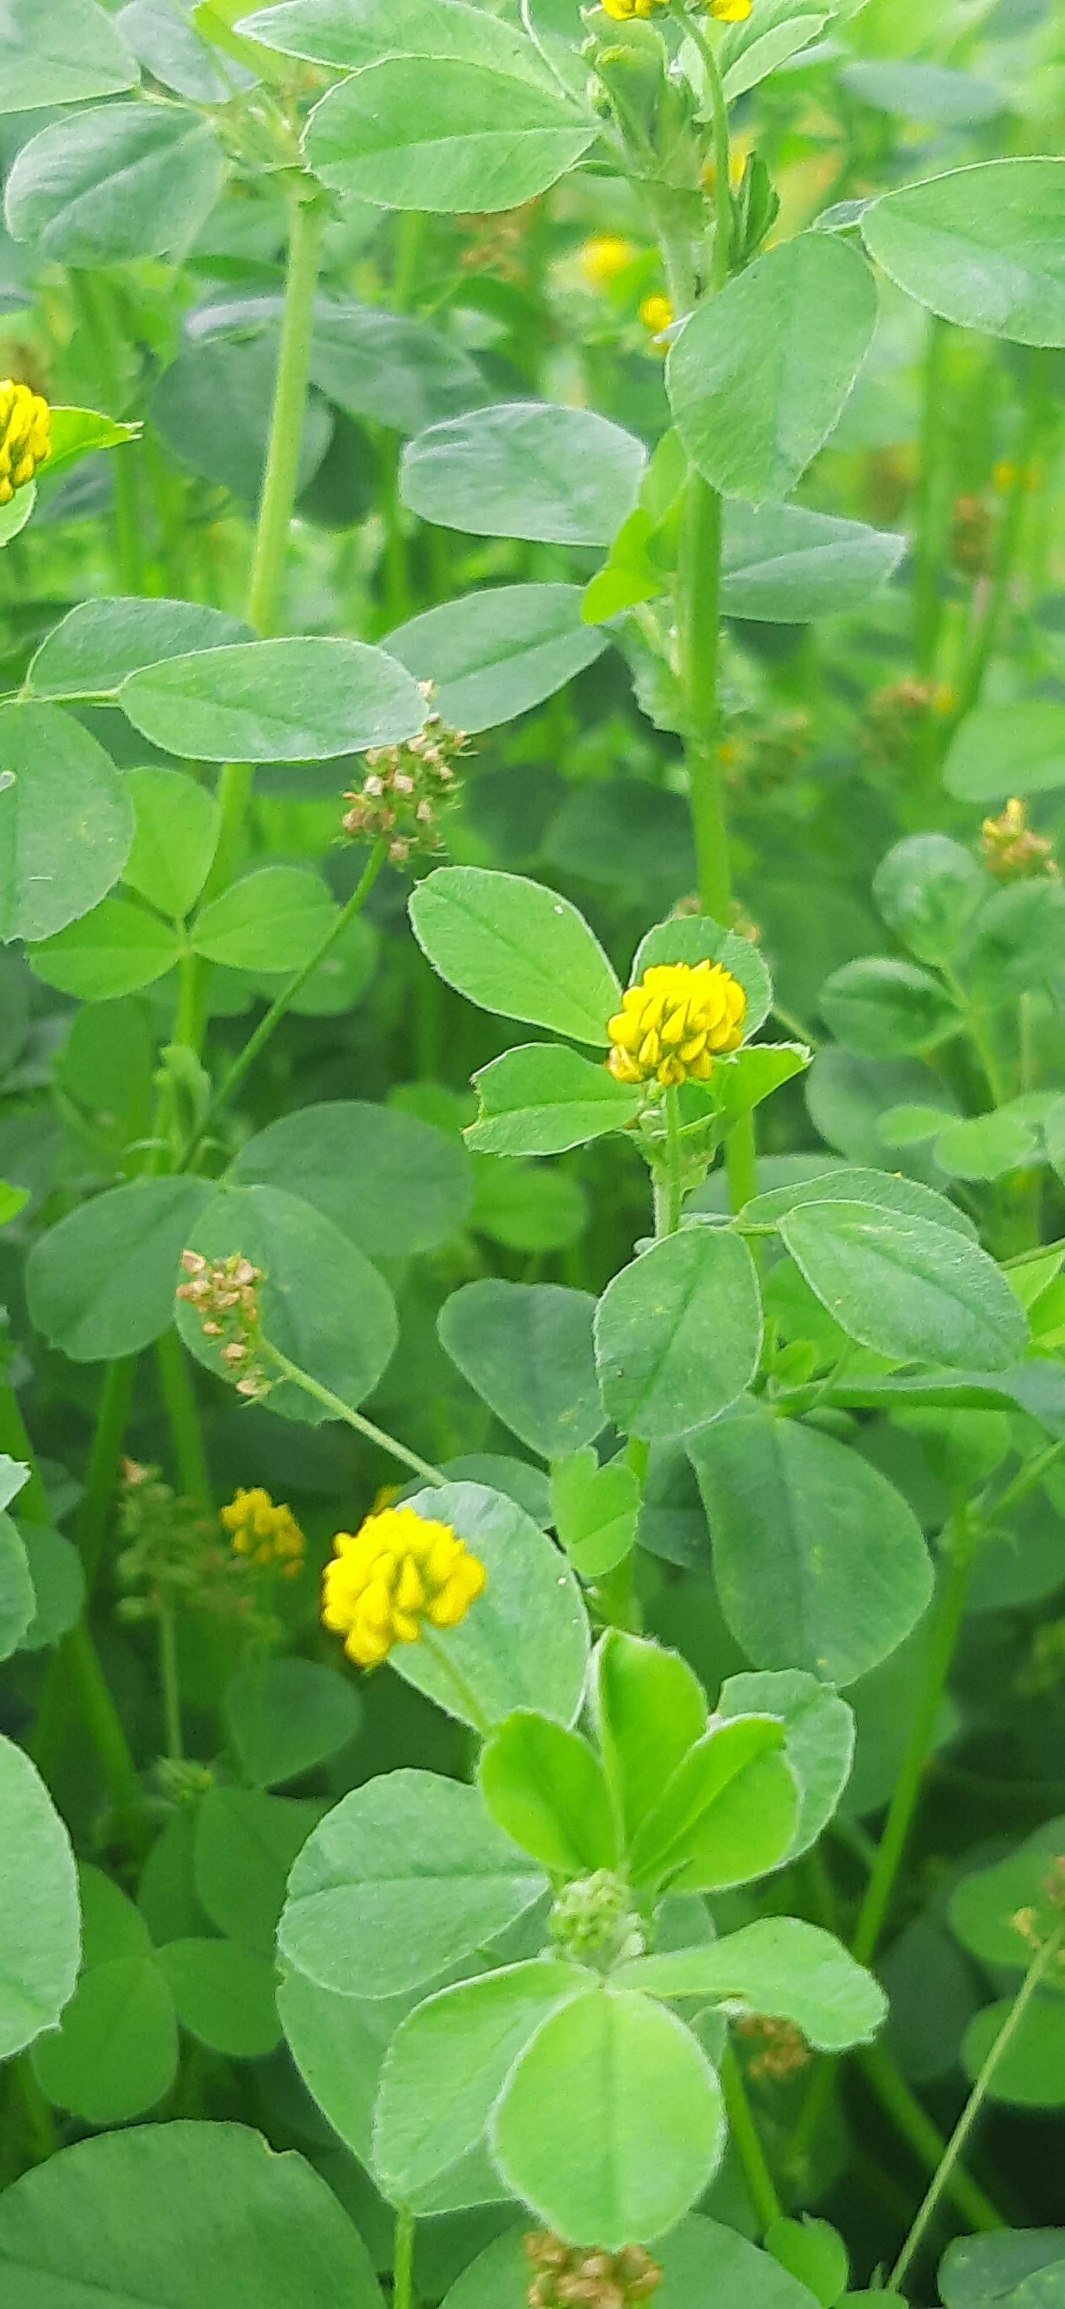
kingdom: Plantae
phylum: Tracheophyta
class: Magnoliopsida
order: Fabales
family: Fabaceae
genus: Medicago
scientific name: Medicago lupulina
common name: Humle-sneglebælg
